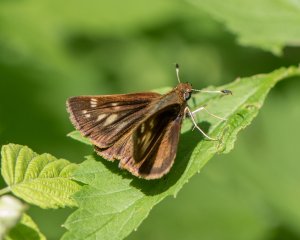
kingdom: Animalia
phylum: Arthropoda
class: Insecta
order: Lepidoptera
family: Hesperiidae
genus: Lon
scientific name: Lon hobomok
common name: Hobomok Skipper
